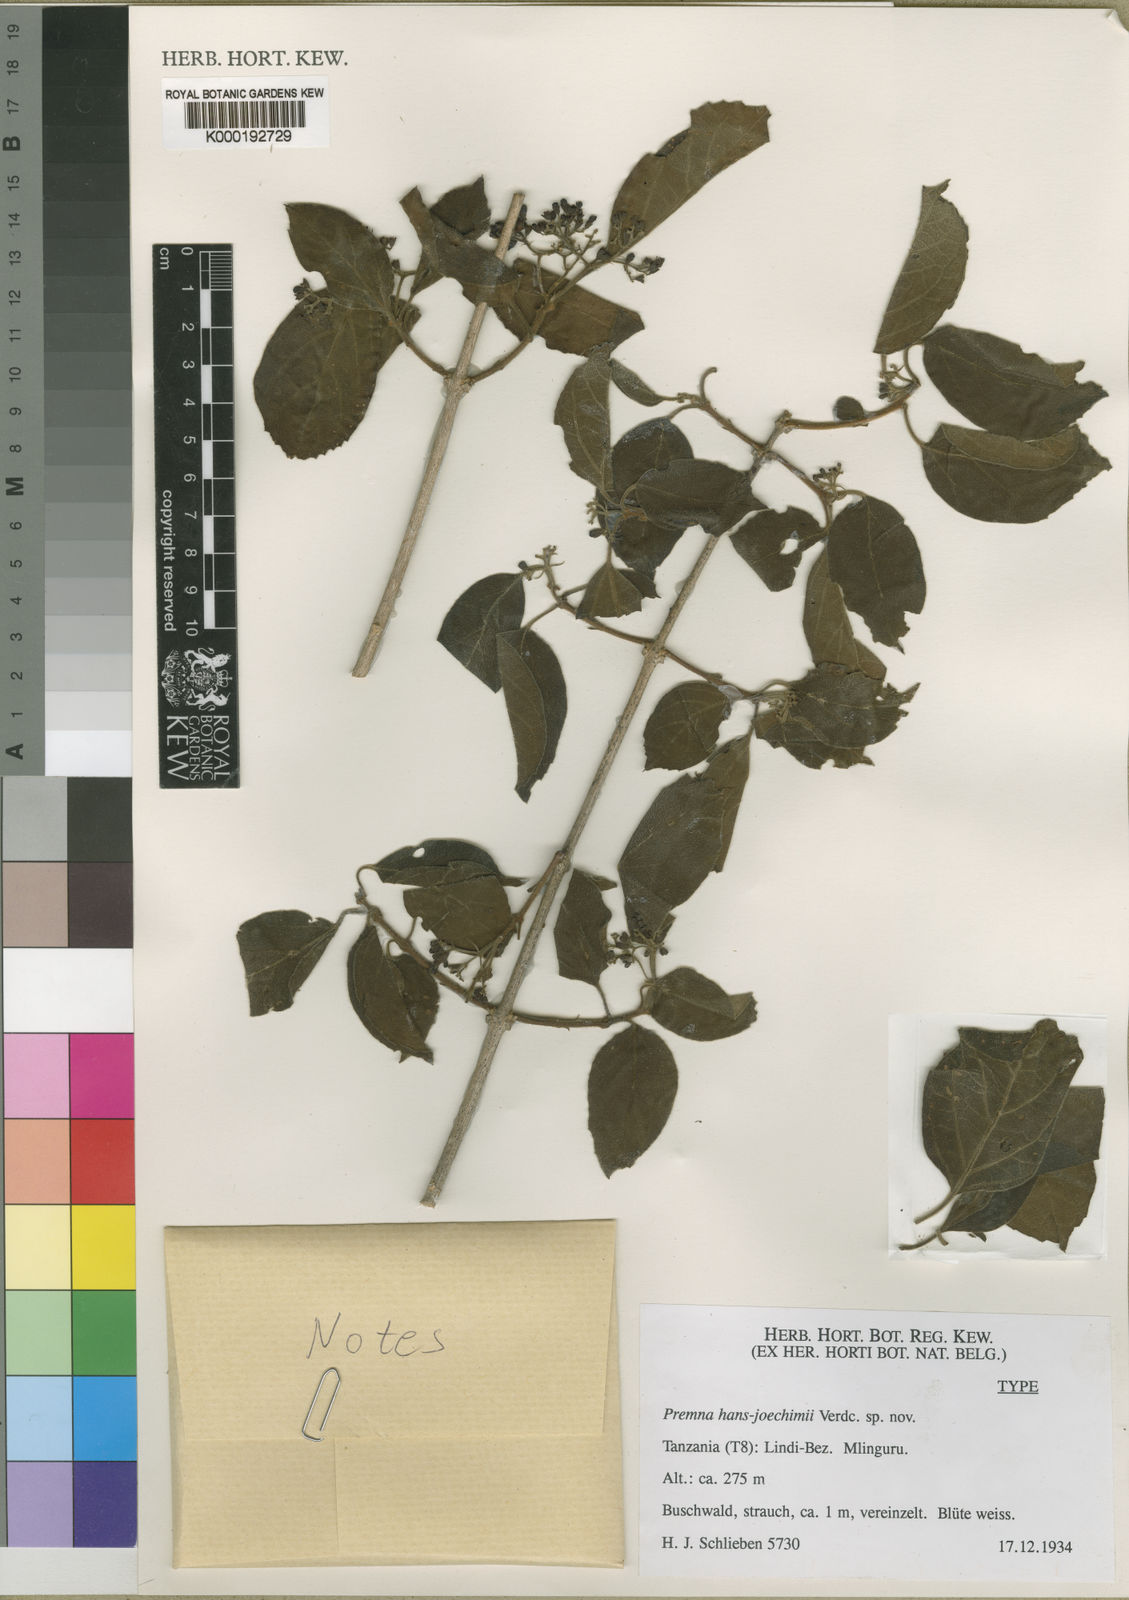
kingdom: Plantae
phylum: Tracheophyta
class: Magnoliopsida
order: Lamiales
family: Lamiaceae
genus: Premna
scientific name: Premna hans-joachimii
